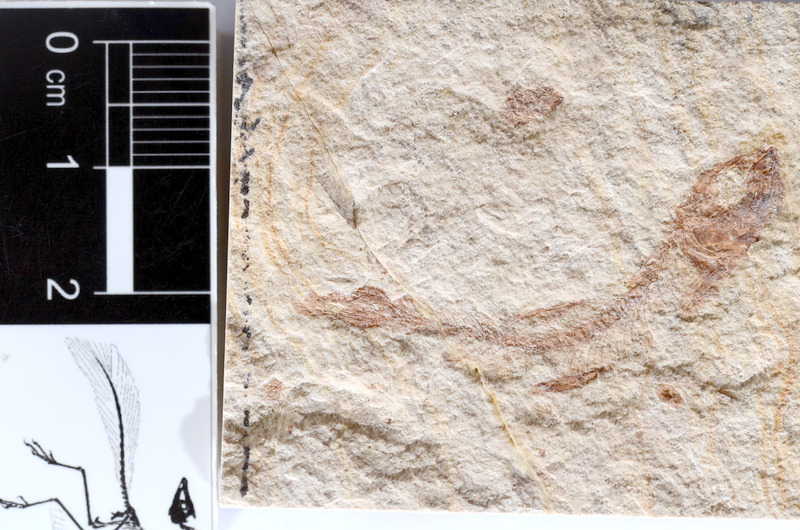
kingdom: Animalia
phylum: Chordata
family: Ascalaboidae
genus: Tharsis
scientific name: Tharsis dubius
